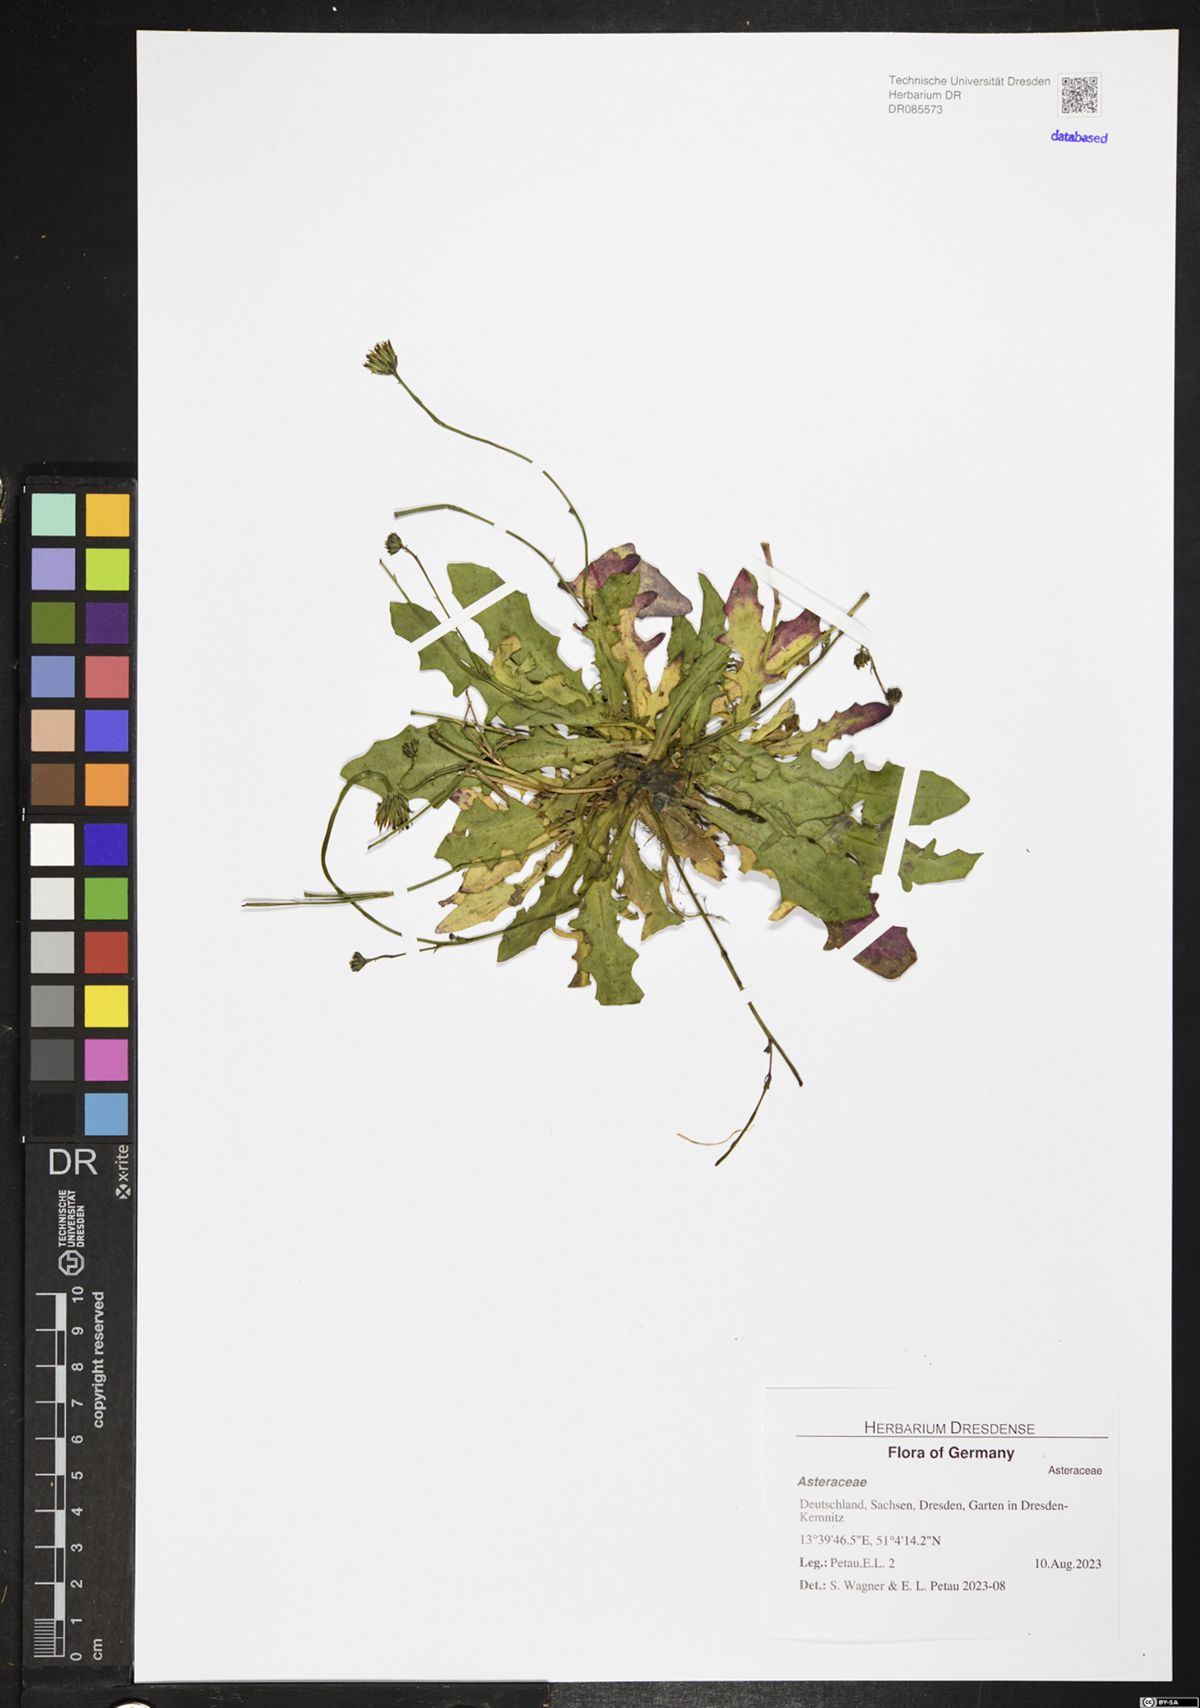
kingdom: Plantae
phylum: Tracheophyta
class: Magnoliopsida
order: Asterales
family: Asteraceae
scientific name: Asteraceae
